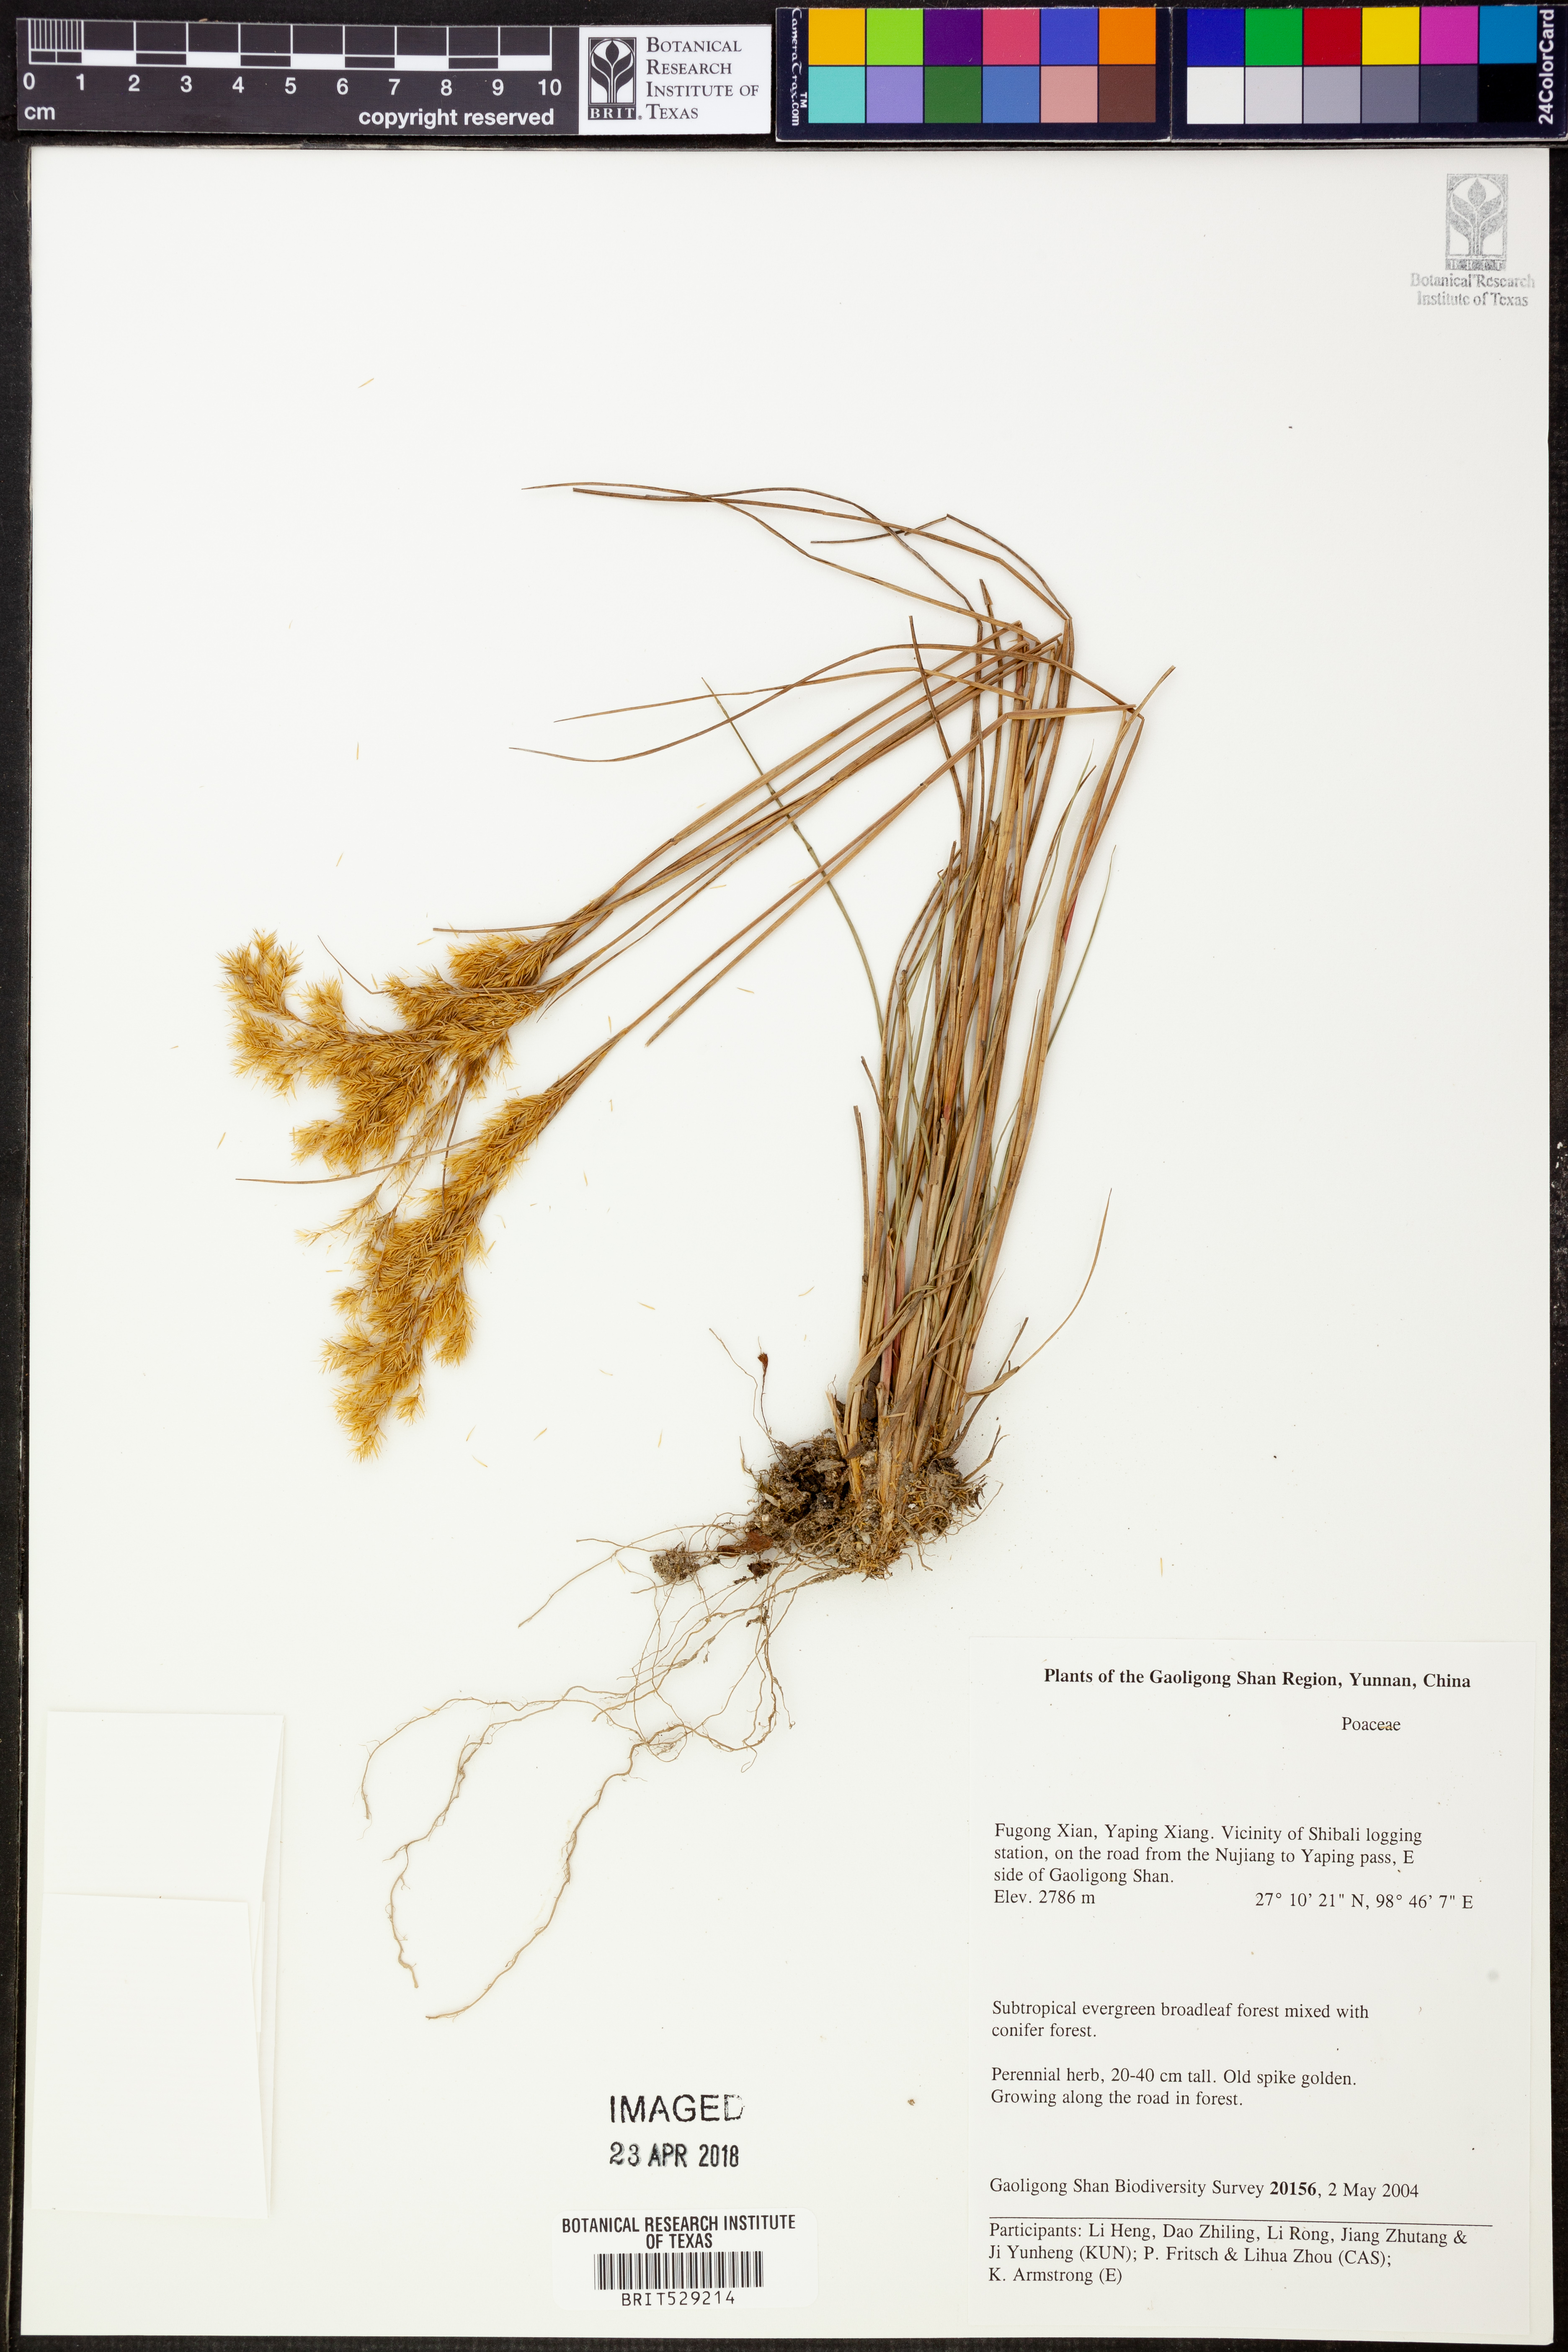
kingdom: Plantae
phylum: Tracheophyta
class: Liliopsida
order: Poales
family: Poaceae
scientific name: Poaceae
